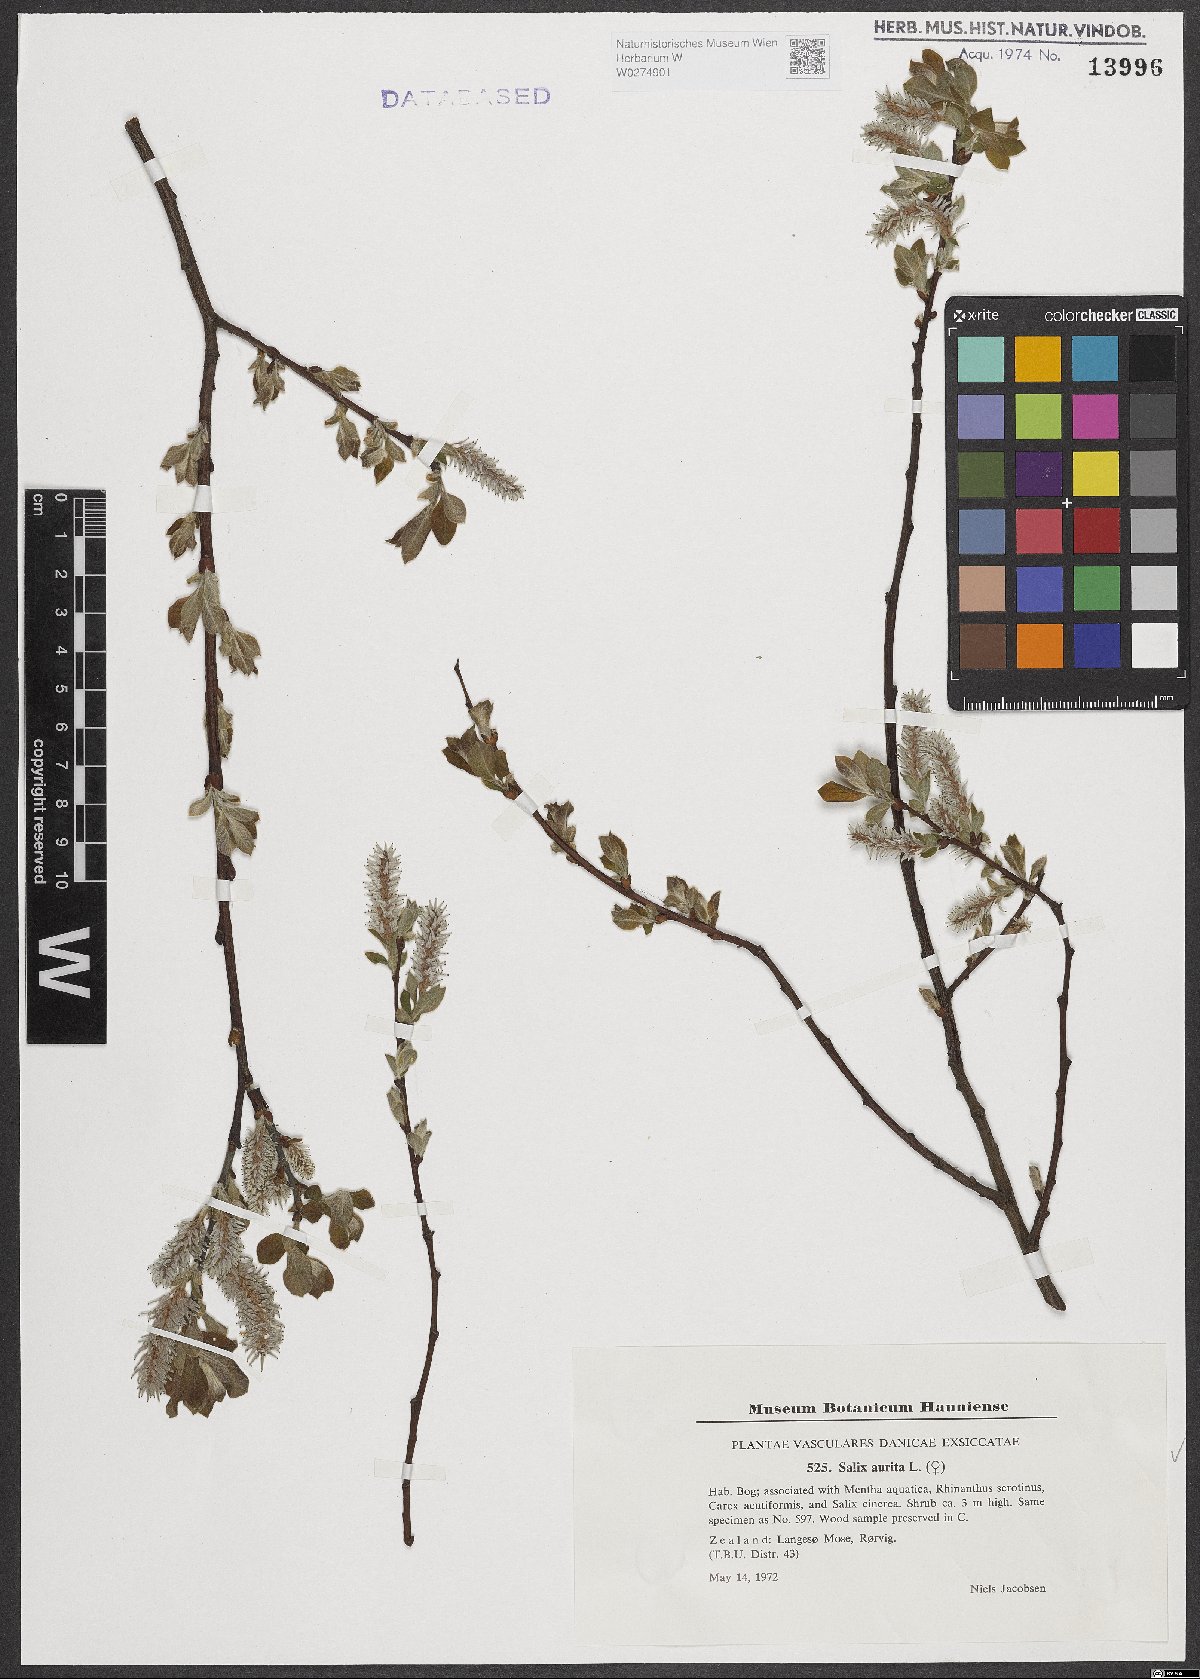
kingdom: Plantae
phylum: Tracheophyta
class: Magnoliopsida
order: Malpighiales
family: Salicaceae
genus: Salix
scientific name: Salix aurita
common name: Eared willow
